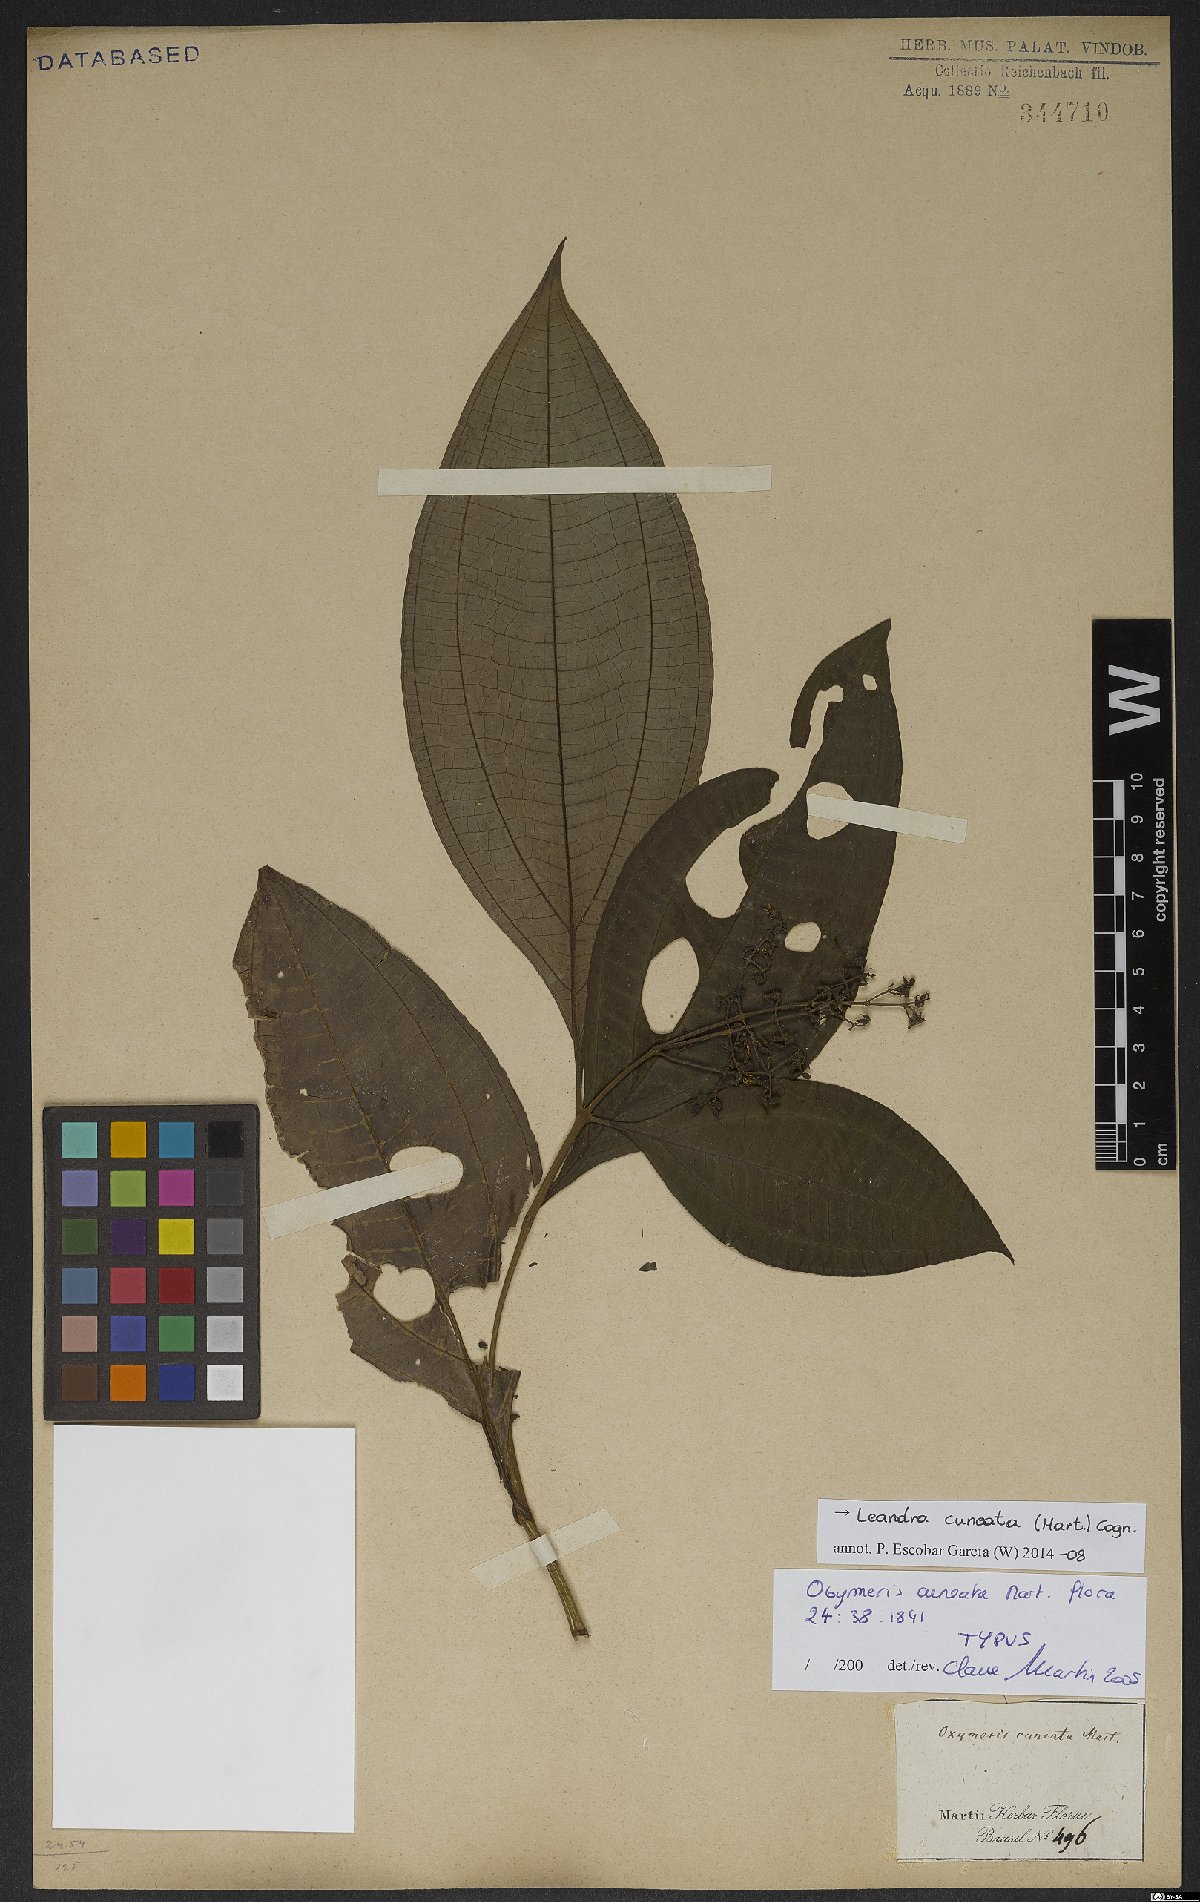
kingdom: Plantae
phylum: Tracheophyta
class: Magnoliopsida
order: Myrtales
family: Melastomataceae
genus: Miconia
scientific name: Miconia cuneatissima
